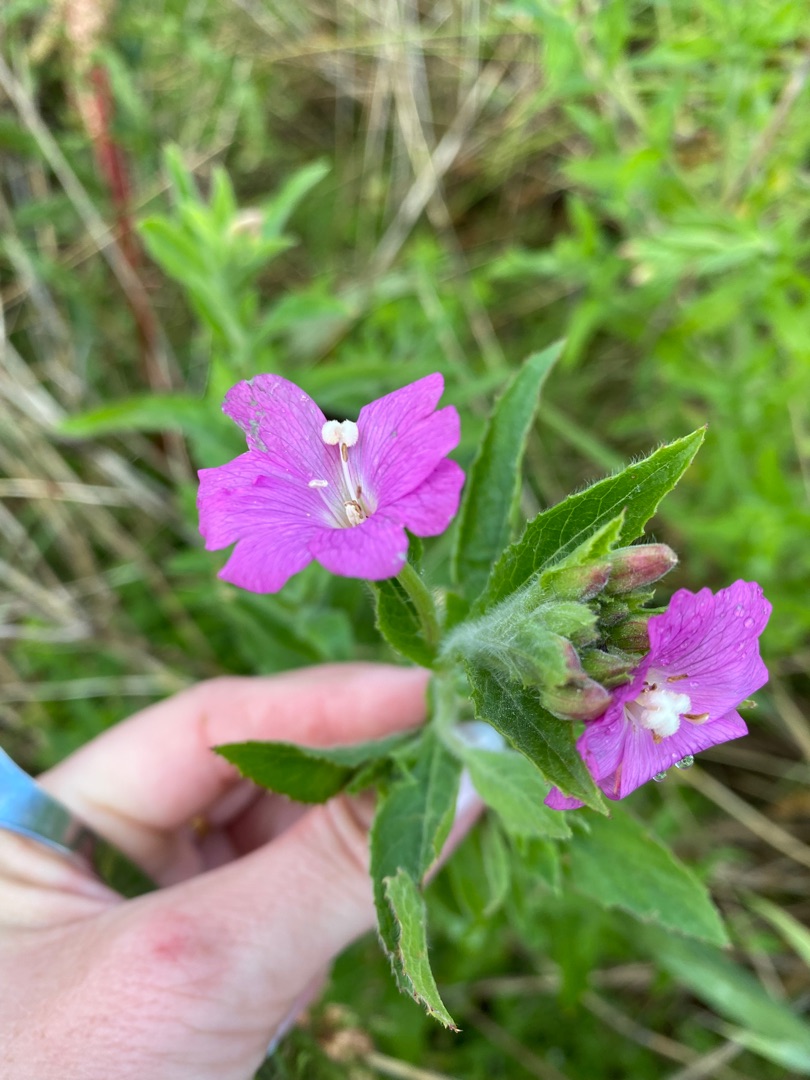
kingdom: Plantae
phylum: Tracheophyta
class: Magnoliopsida
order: Myrtales
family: Onagraceae
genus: Epilobium
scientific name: Epilobium hirsutum
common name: Lådden dueurt
